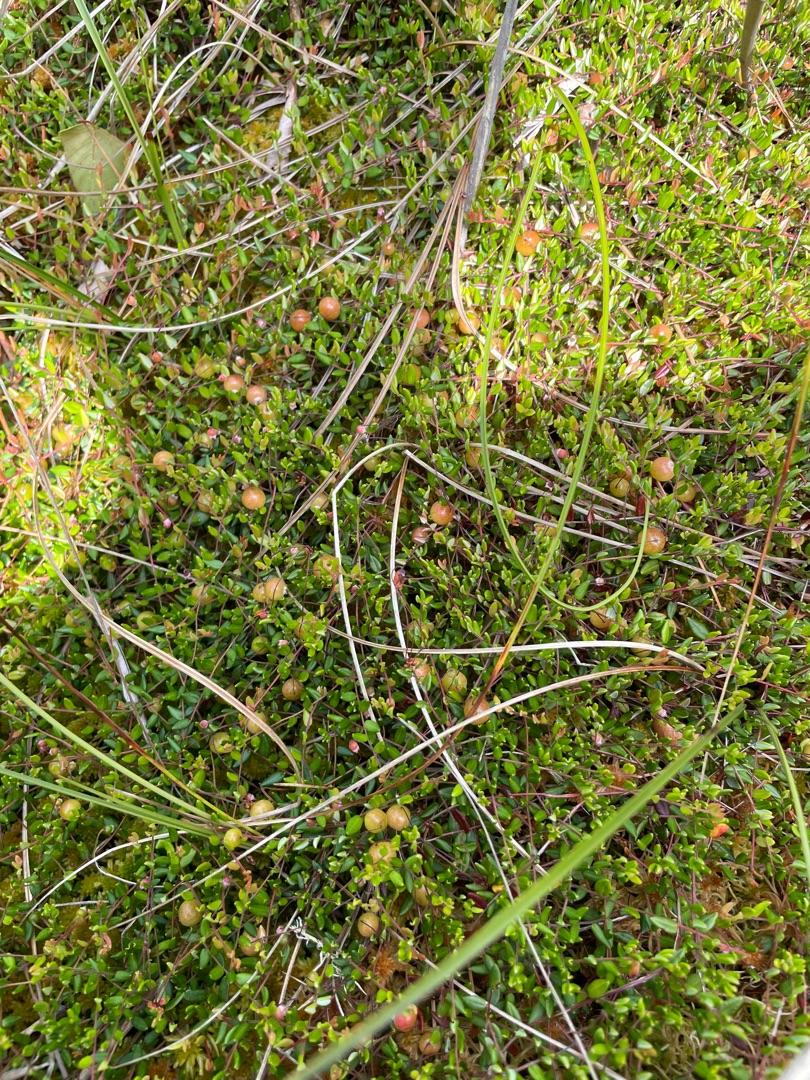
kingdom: Plantae
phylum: Tracheophyta
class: Magnoliopsida
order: Ericales
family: Ericaceae
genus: Vaccinium
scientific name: Vaccinium oxycoccos
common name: Tranebær
